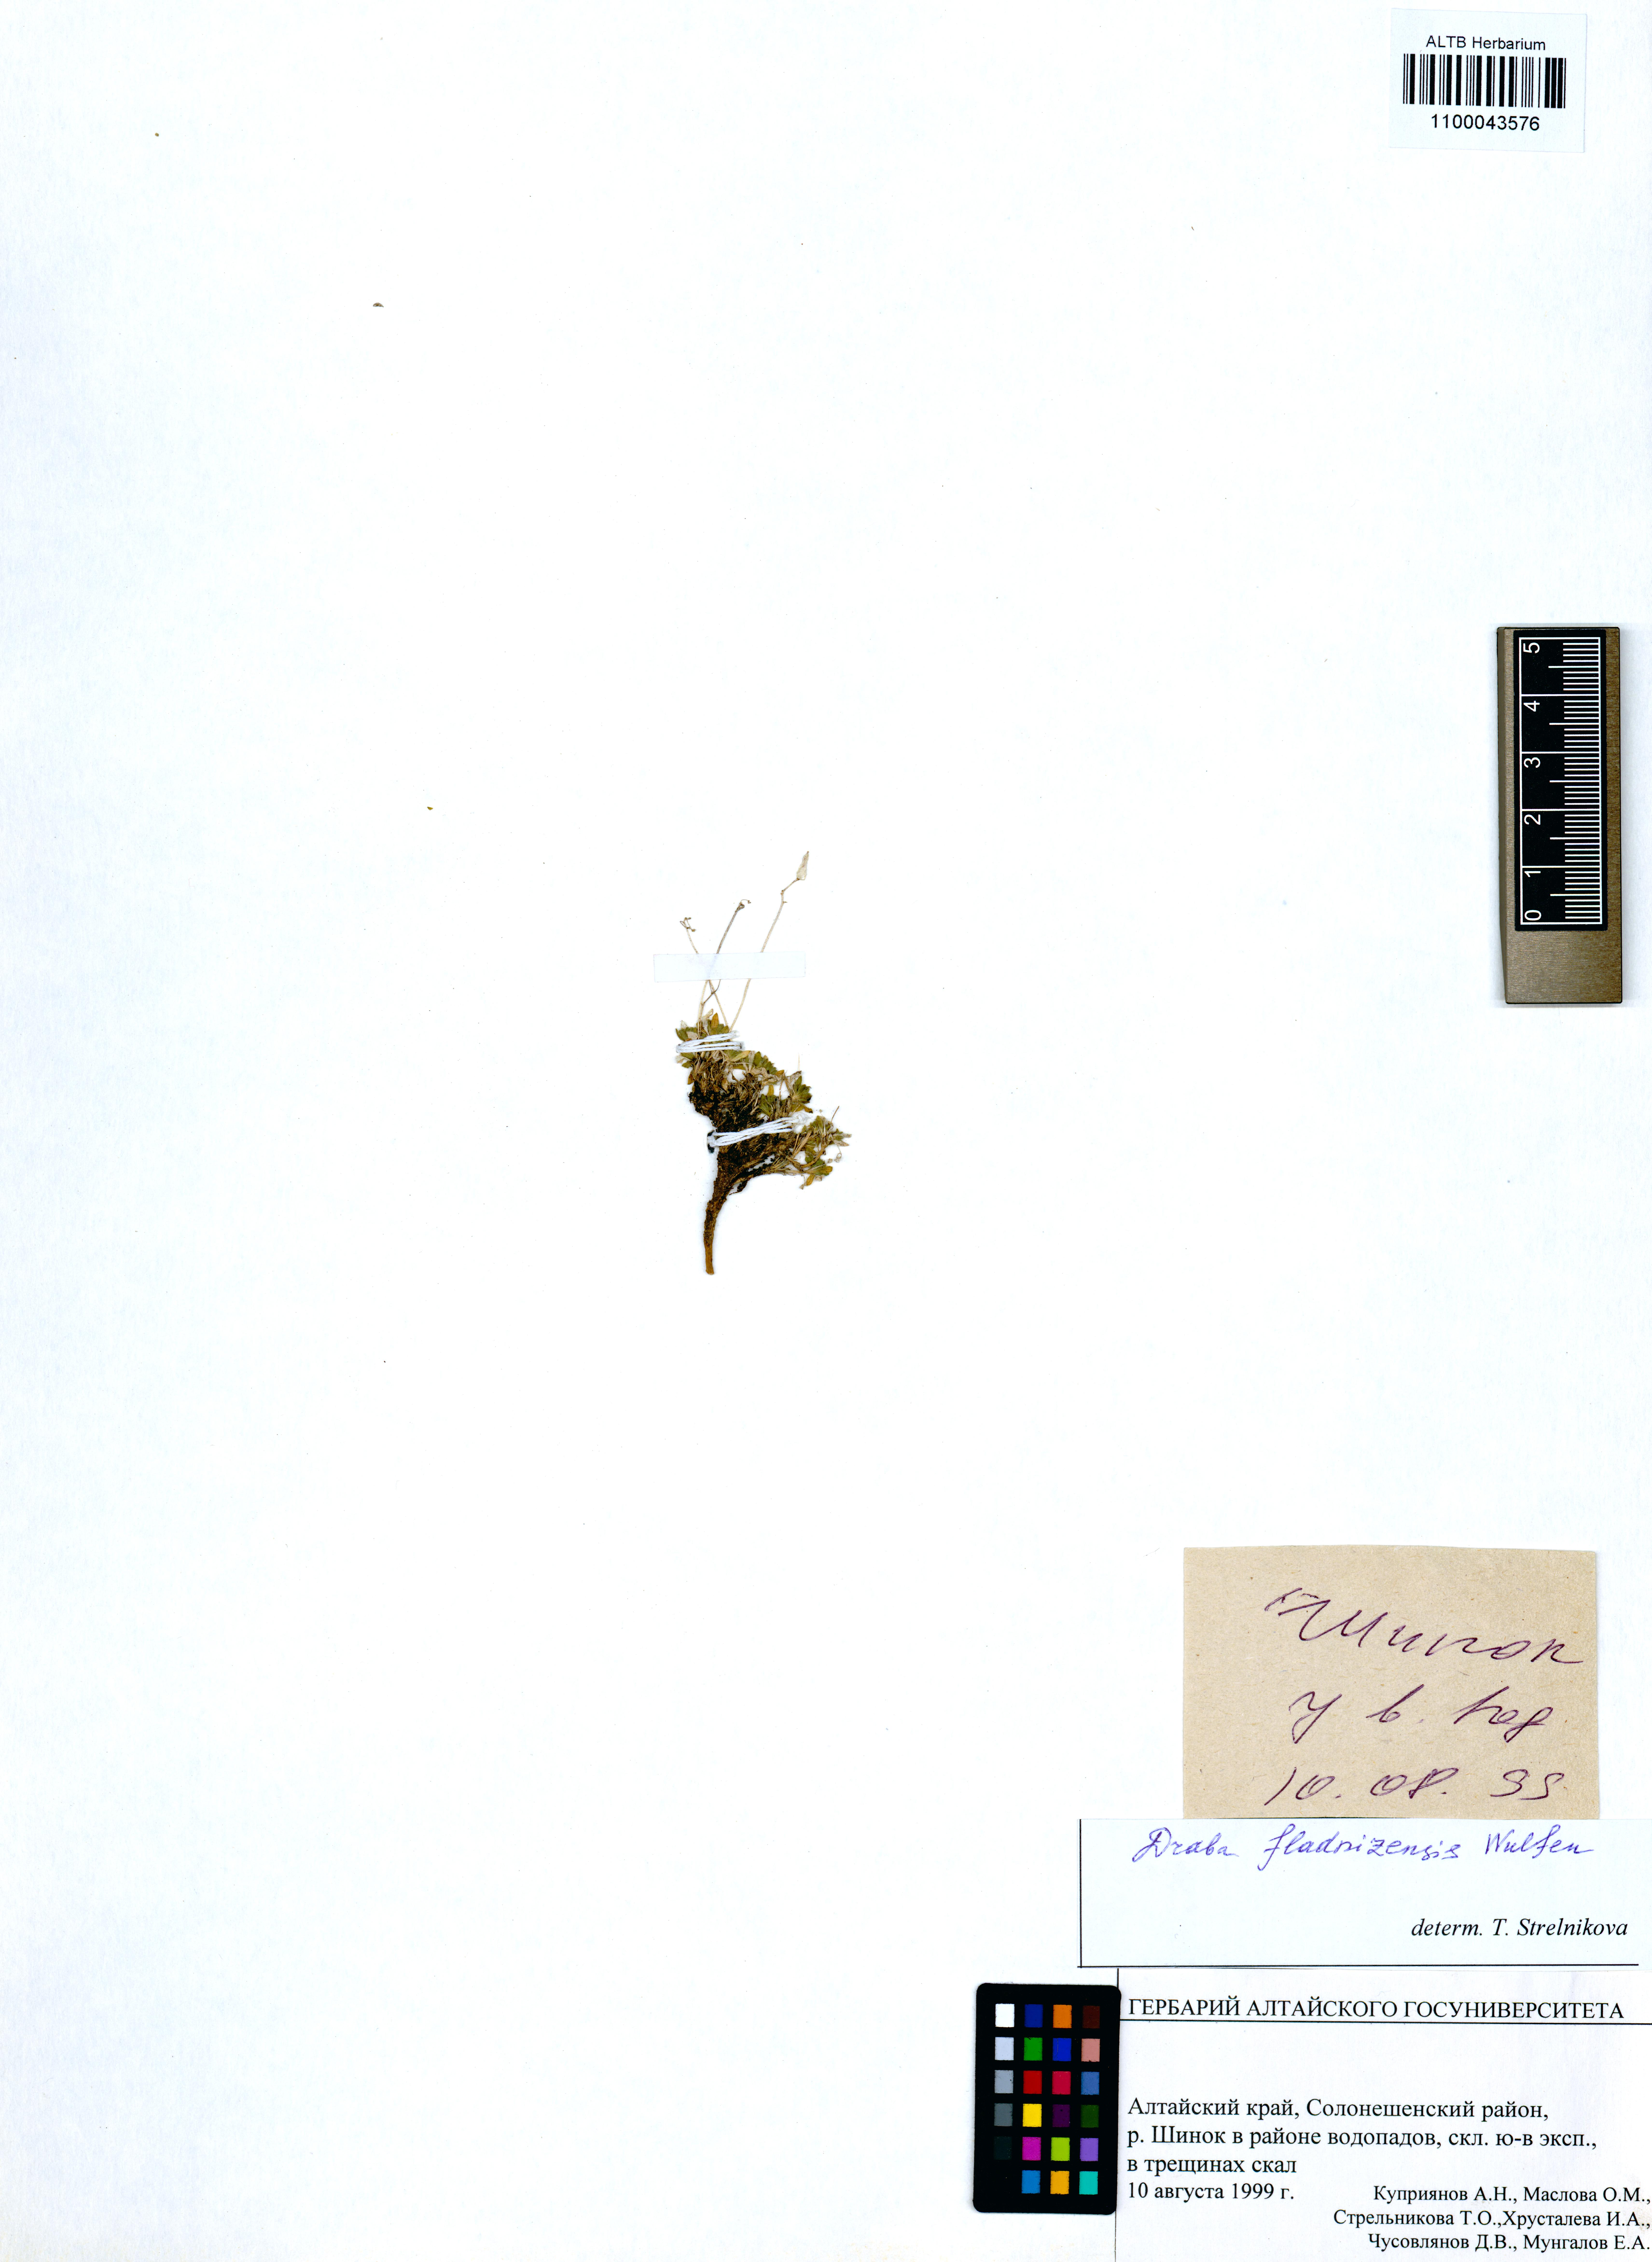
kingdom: Plantae
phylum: Tracheophyta
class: Magnoliopsida
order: Brassicales
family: Brassicaceae
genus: Draba
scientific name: Draba fladnizensis
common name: Austrian draba
